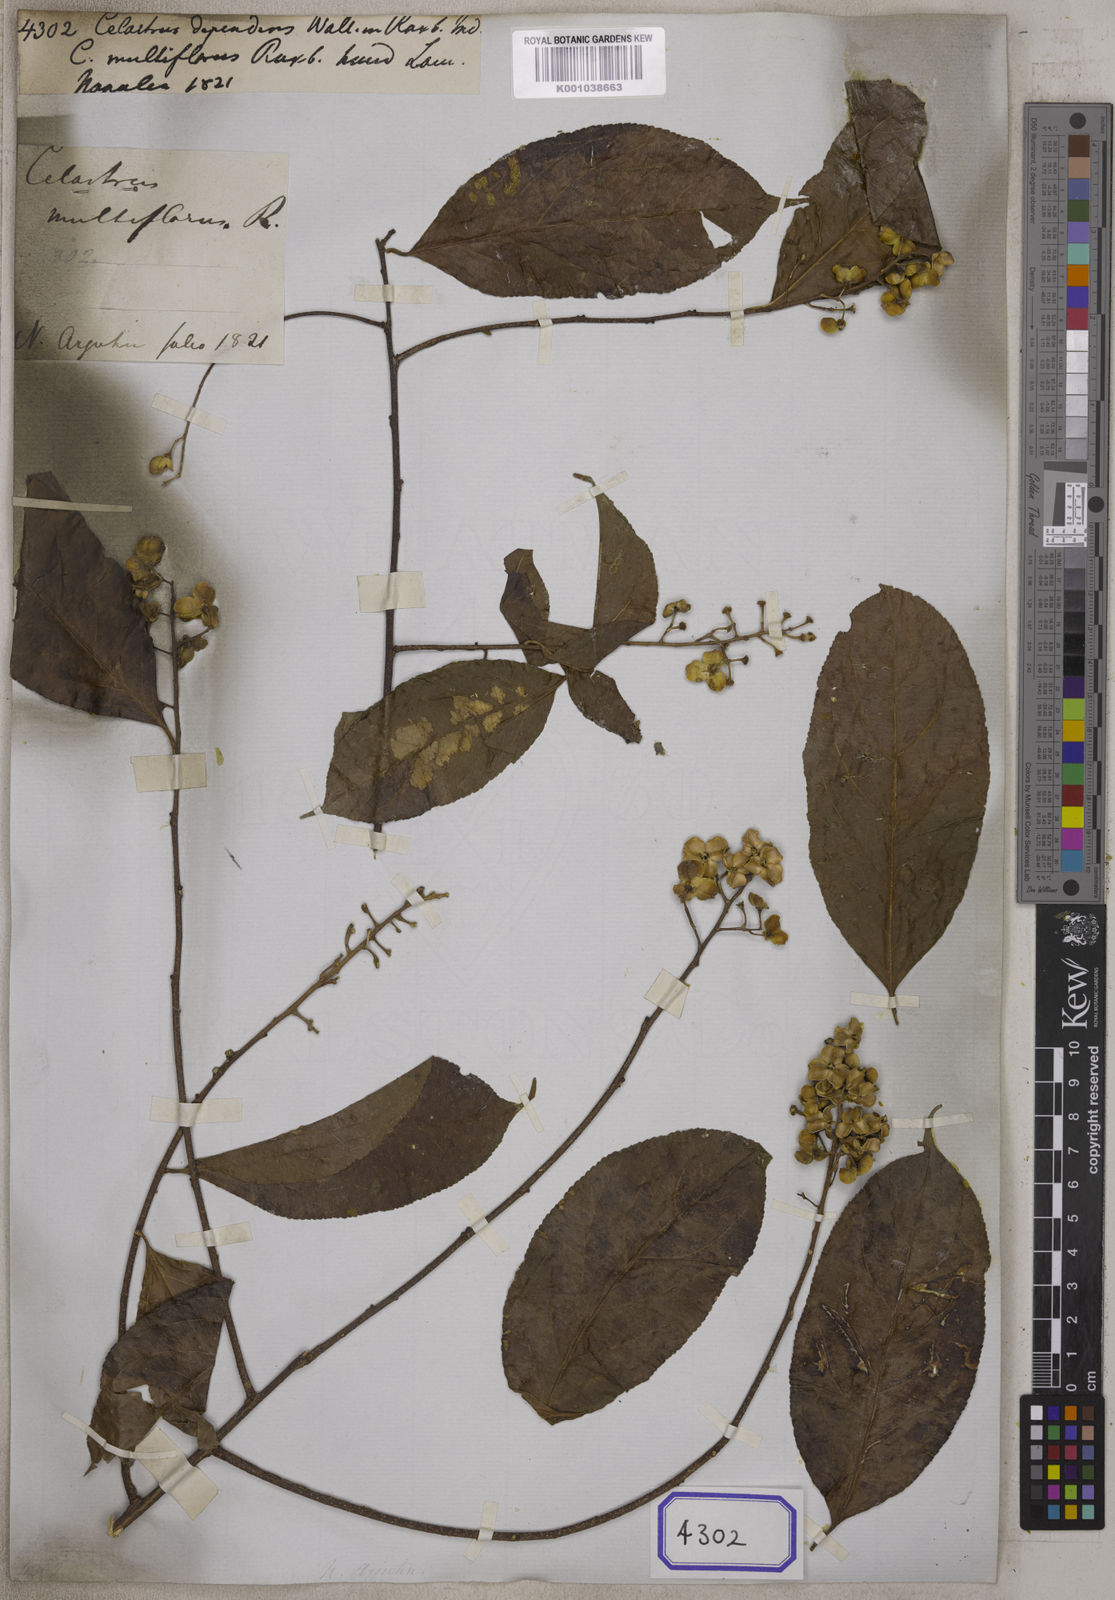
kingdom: Plantae
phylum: Tracheophyta
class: Magnoliopsida
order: Celastrales
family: Celastraceae
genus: Celastrus
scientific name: Celastrus paniculatus
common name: Oriental bittersweet; staff vine
